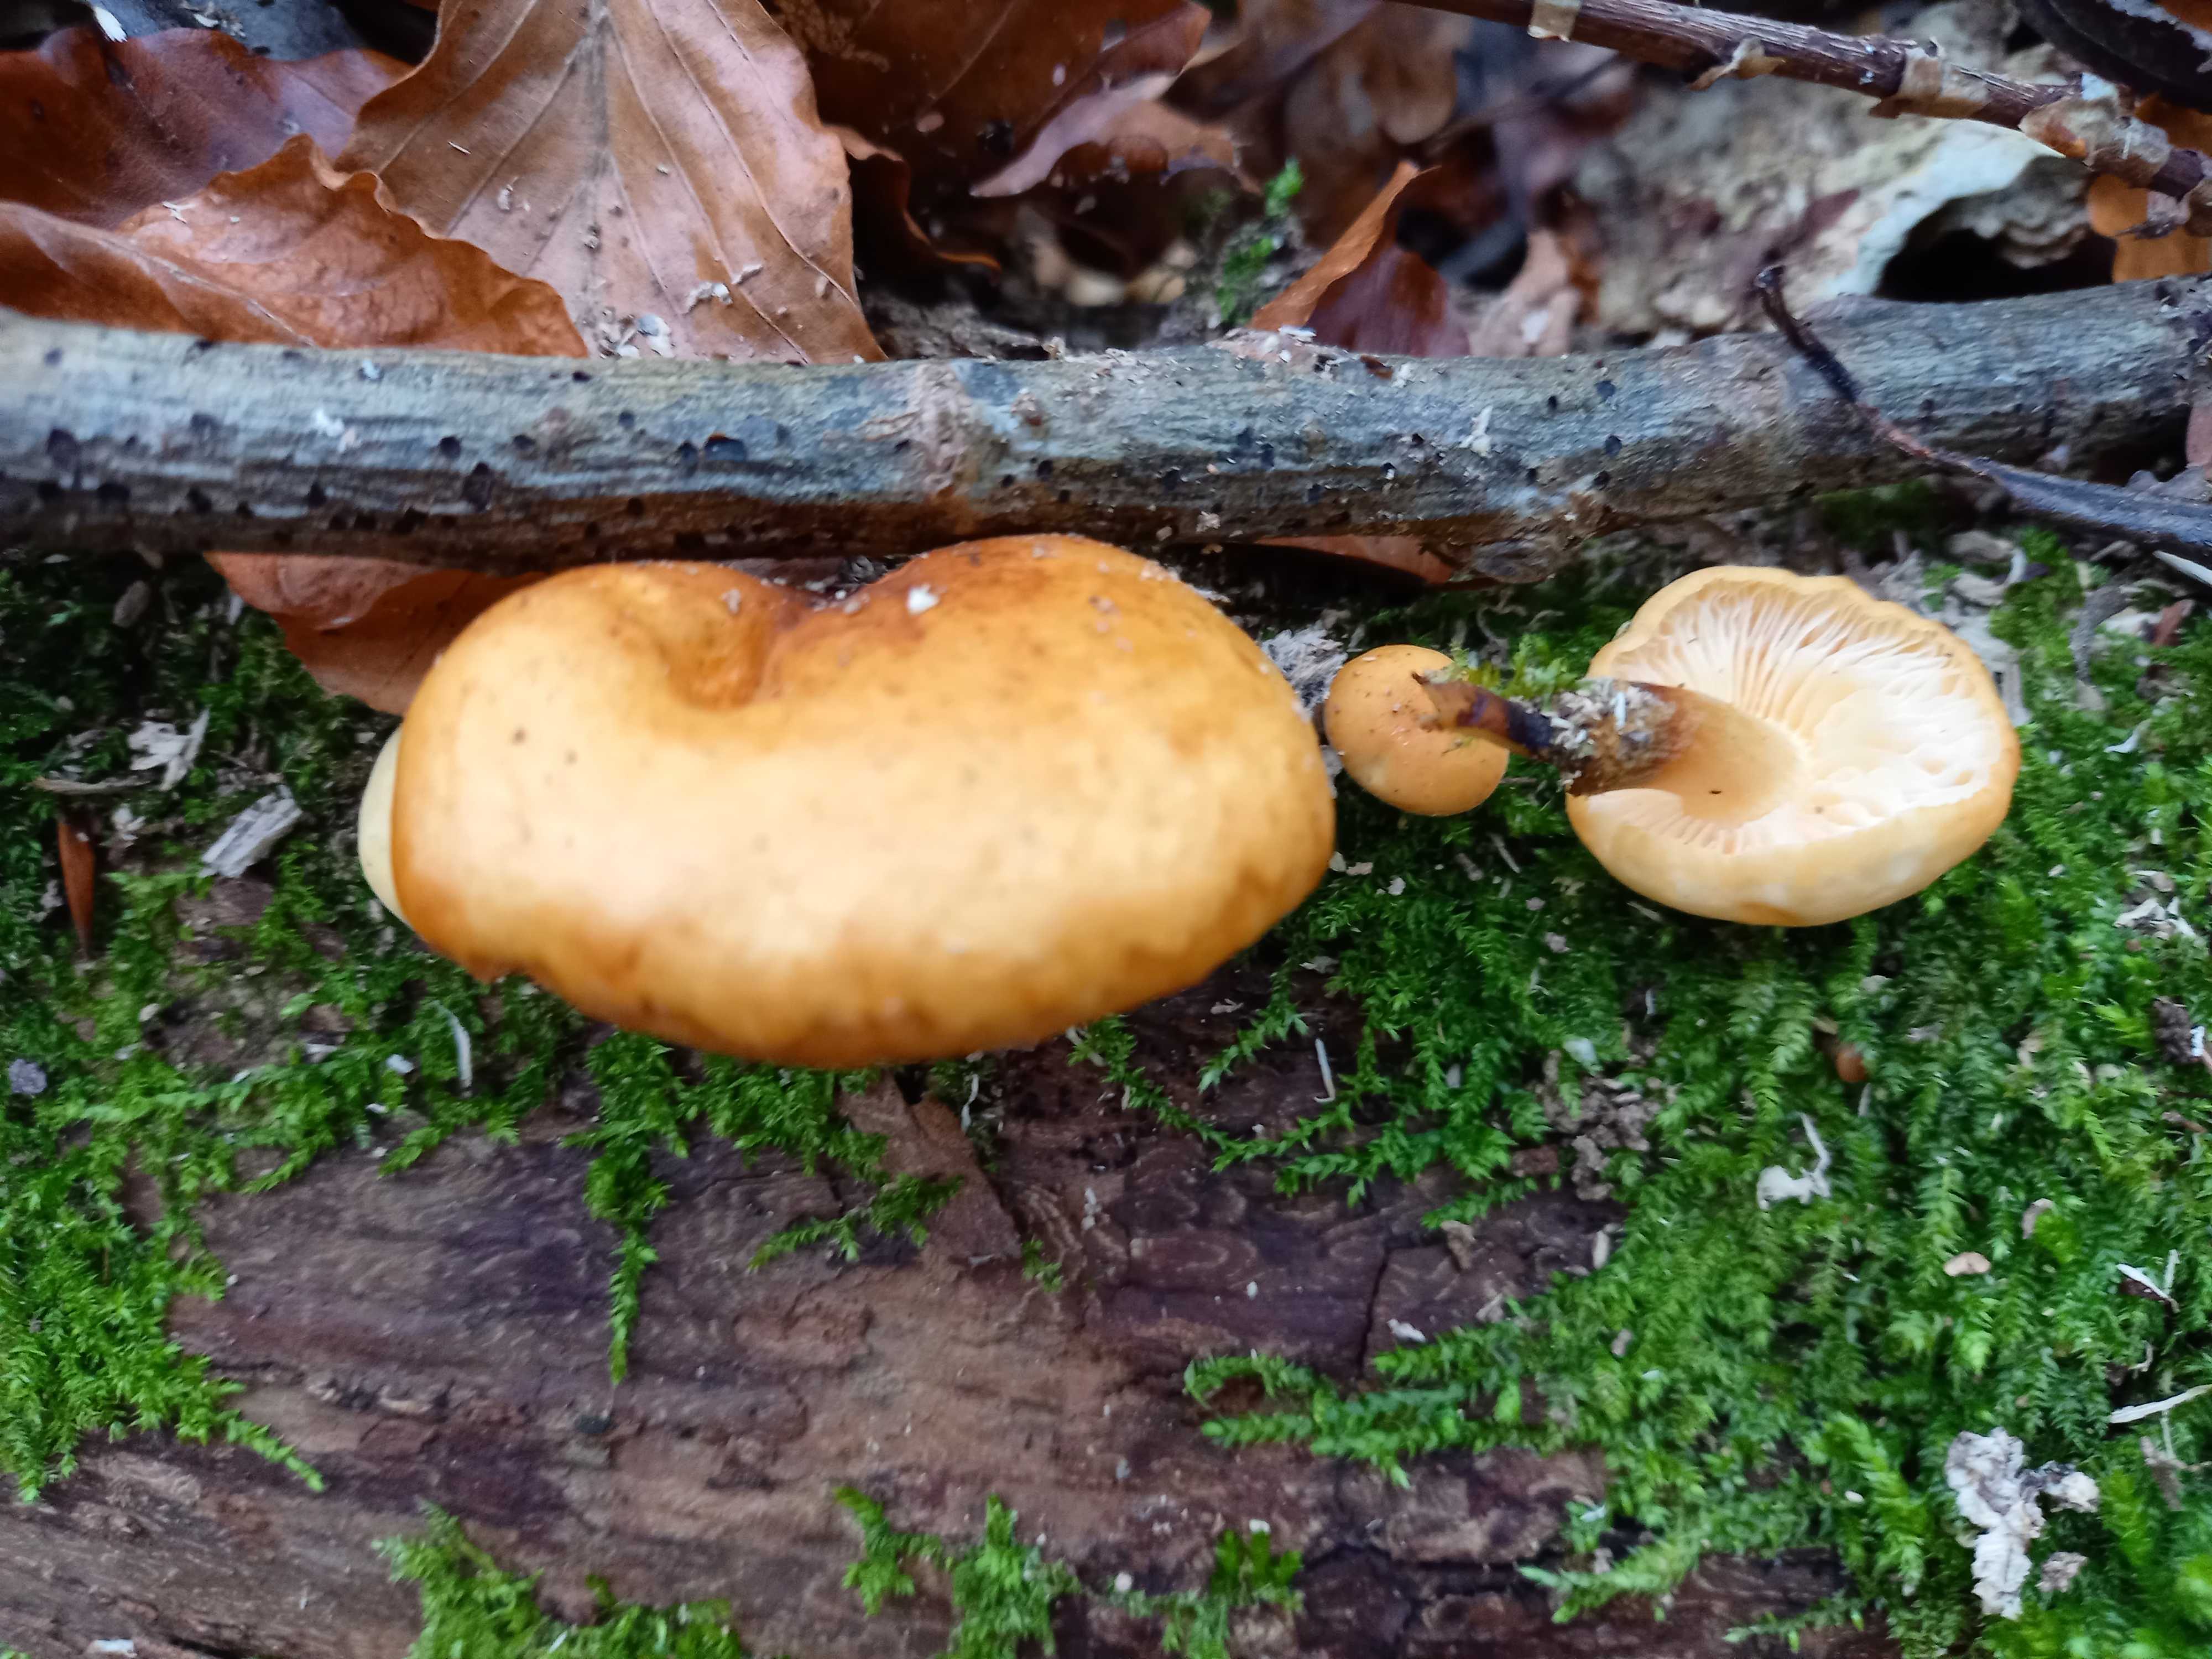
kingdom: Fungi
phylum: Basidiomycota
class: Agaricomycetes
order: Agaricales
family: Physalacriaceae
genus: Flammulina
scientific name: Flammulina
